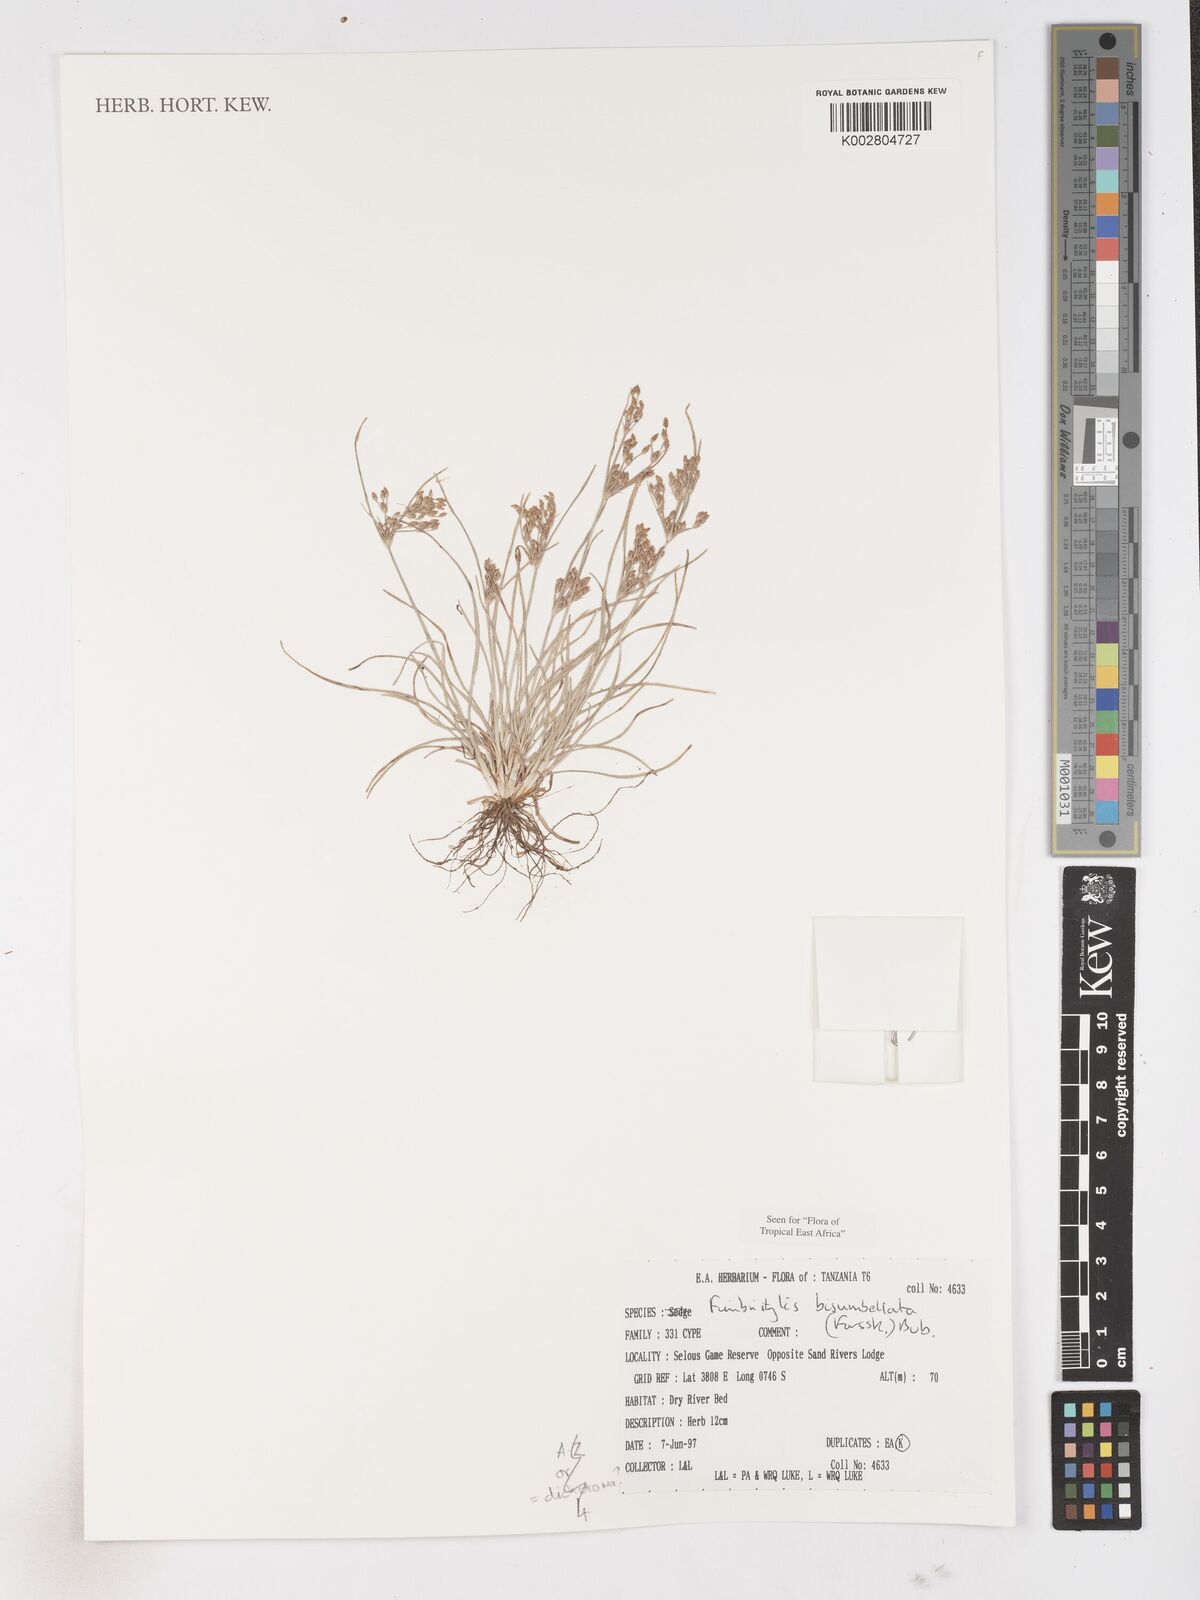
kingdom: Plantae
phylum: Tracheophyta
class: Liliopsida
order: Poales
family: Cyperaceae
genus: Fimbristylis
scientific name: Fimbristylis bisumbellata
